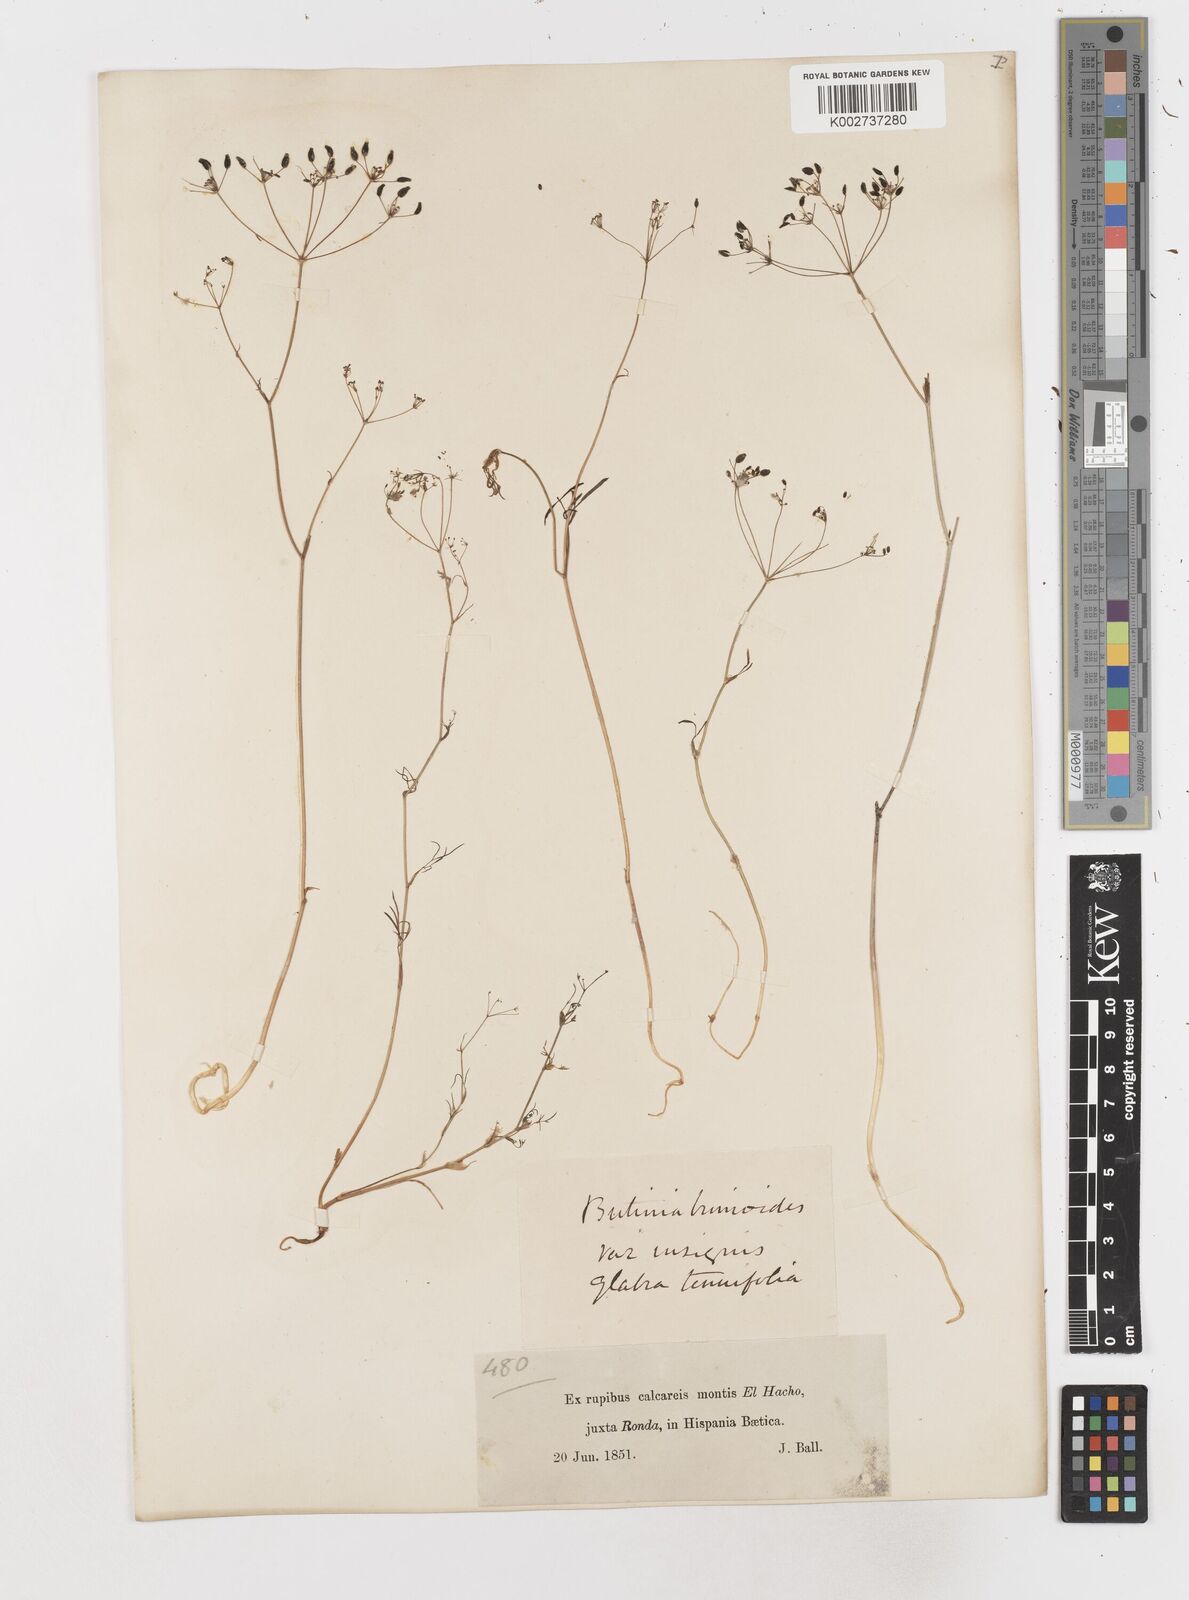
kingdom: Plantae
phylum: Tracheophyta
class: Magnoliopsida
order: Apiales
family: Apiaceae
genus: Conopodium
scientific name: Conopodium bunioides
